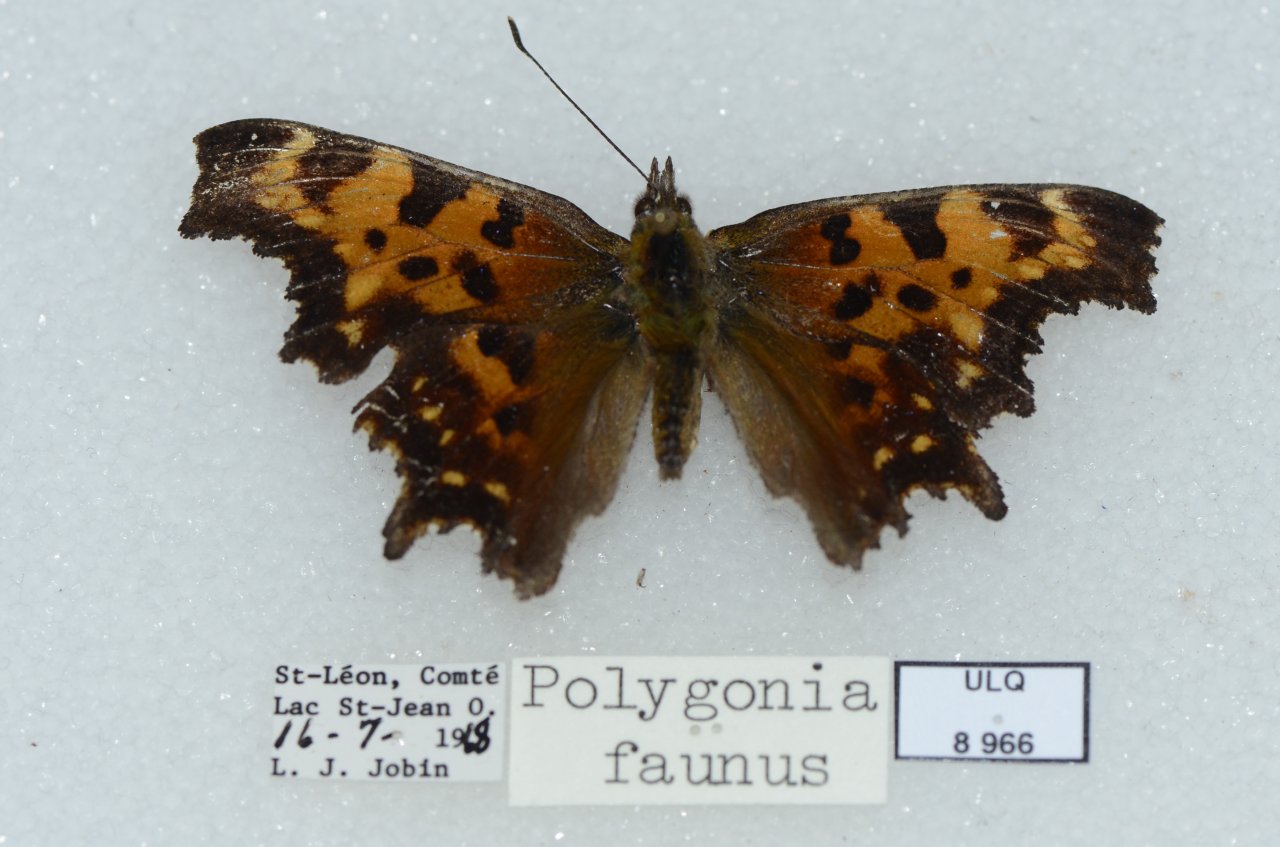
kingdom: Animalia
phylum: Arthropoda
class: Insecta
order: Lepidoptera
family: Nymphalidae
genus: Polygonia
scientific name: Polygonia faunus
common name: Green Comma
